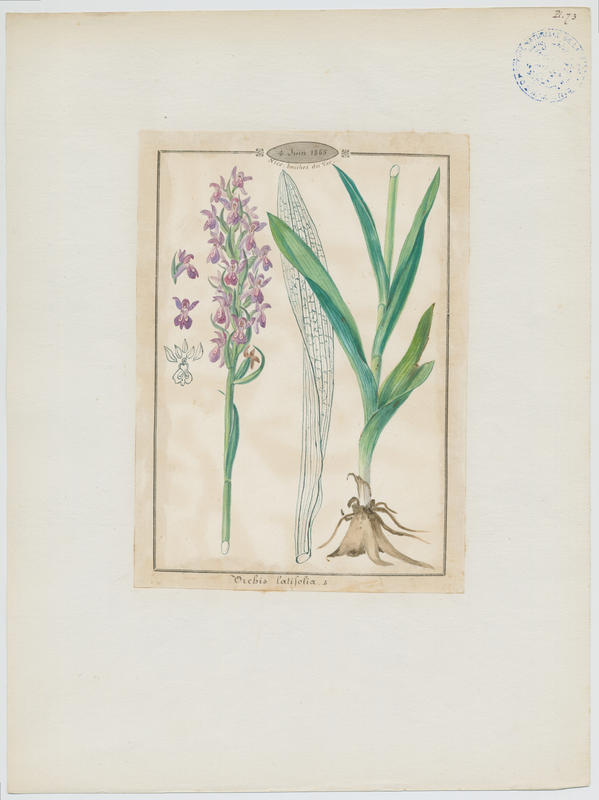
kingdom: Plantae
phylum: Tracheophyta
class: Liliopsida
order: Asparagales
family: Orchidaceae
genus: Dactylorhiza
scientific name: Dactylorhiza sambucina
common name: Elder-flowered orchid
